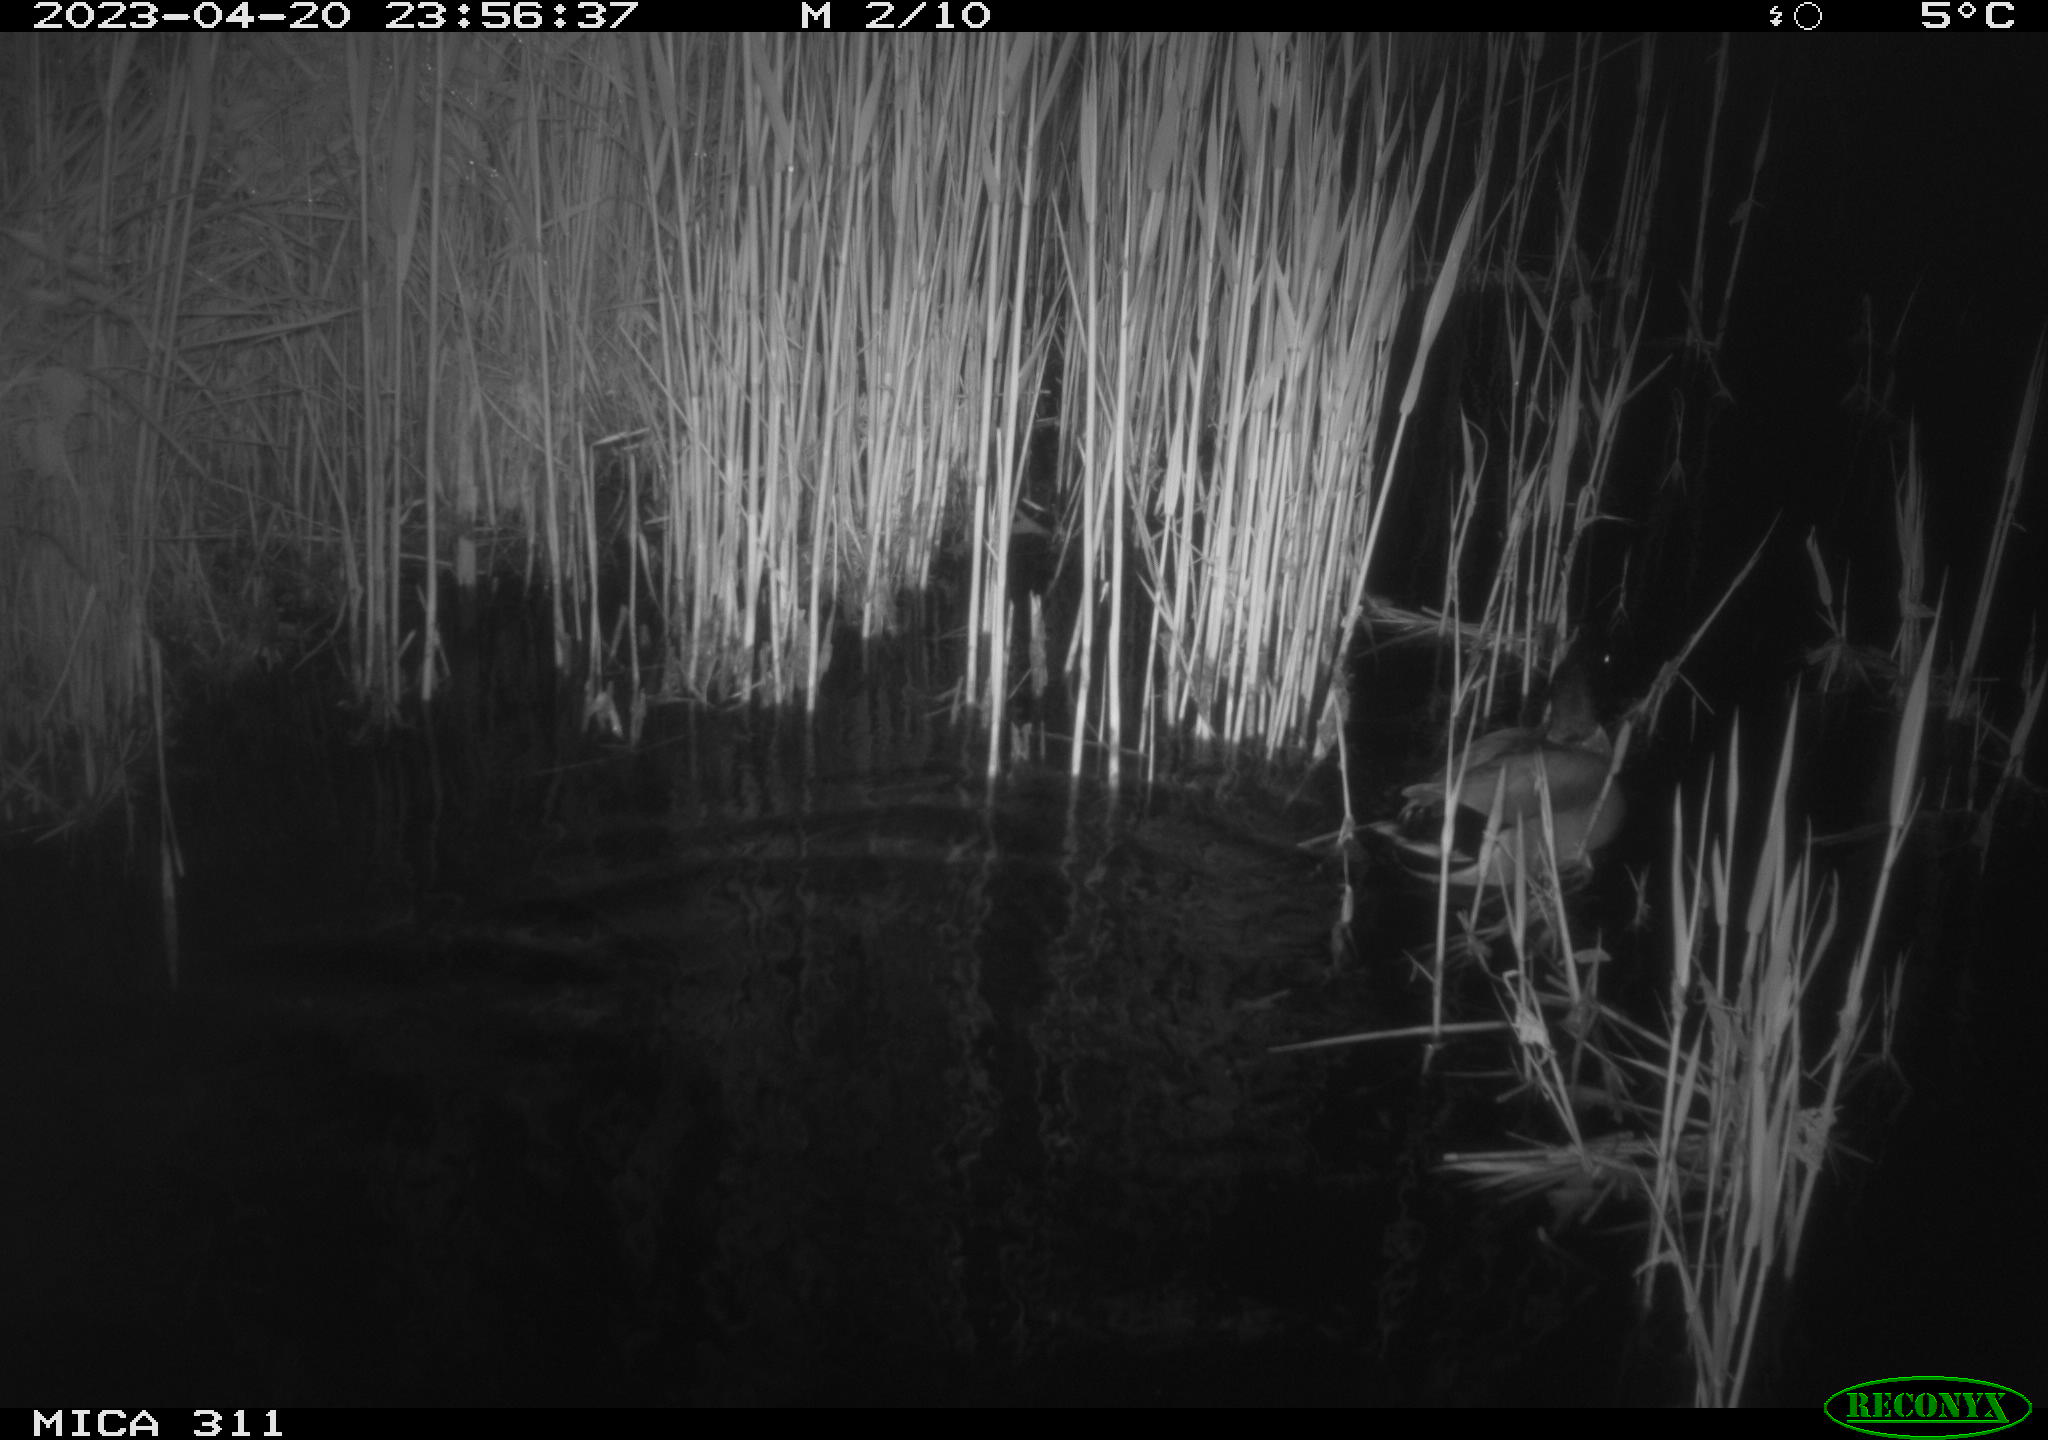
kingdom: Animalia
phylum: Chordata
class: Aves
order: Anseriformes
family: Anatidae
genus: Anas
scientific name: Anas
